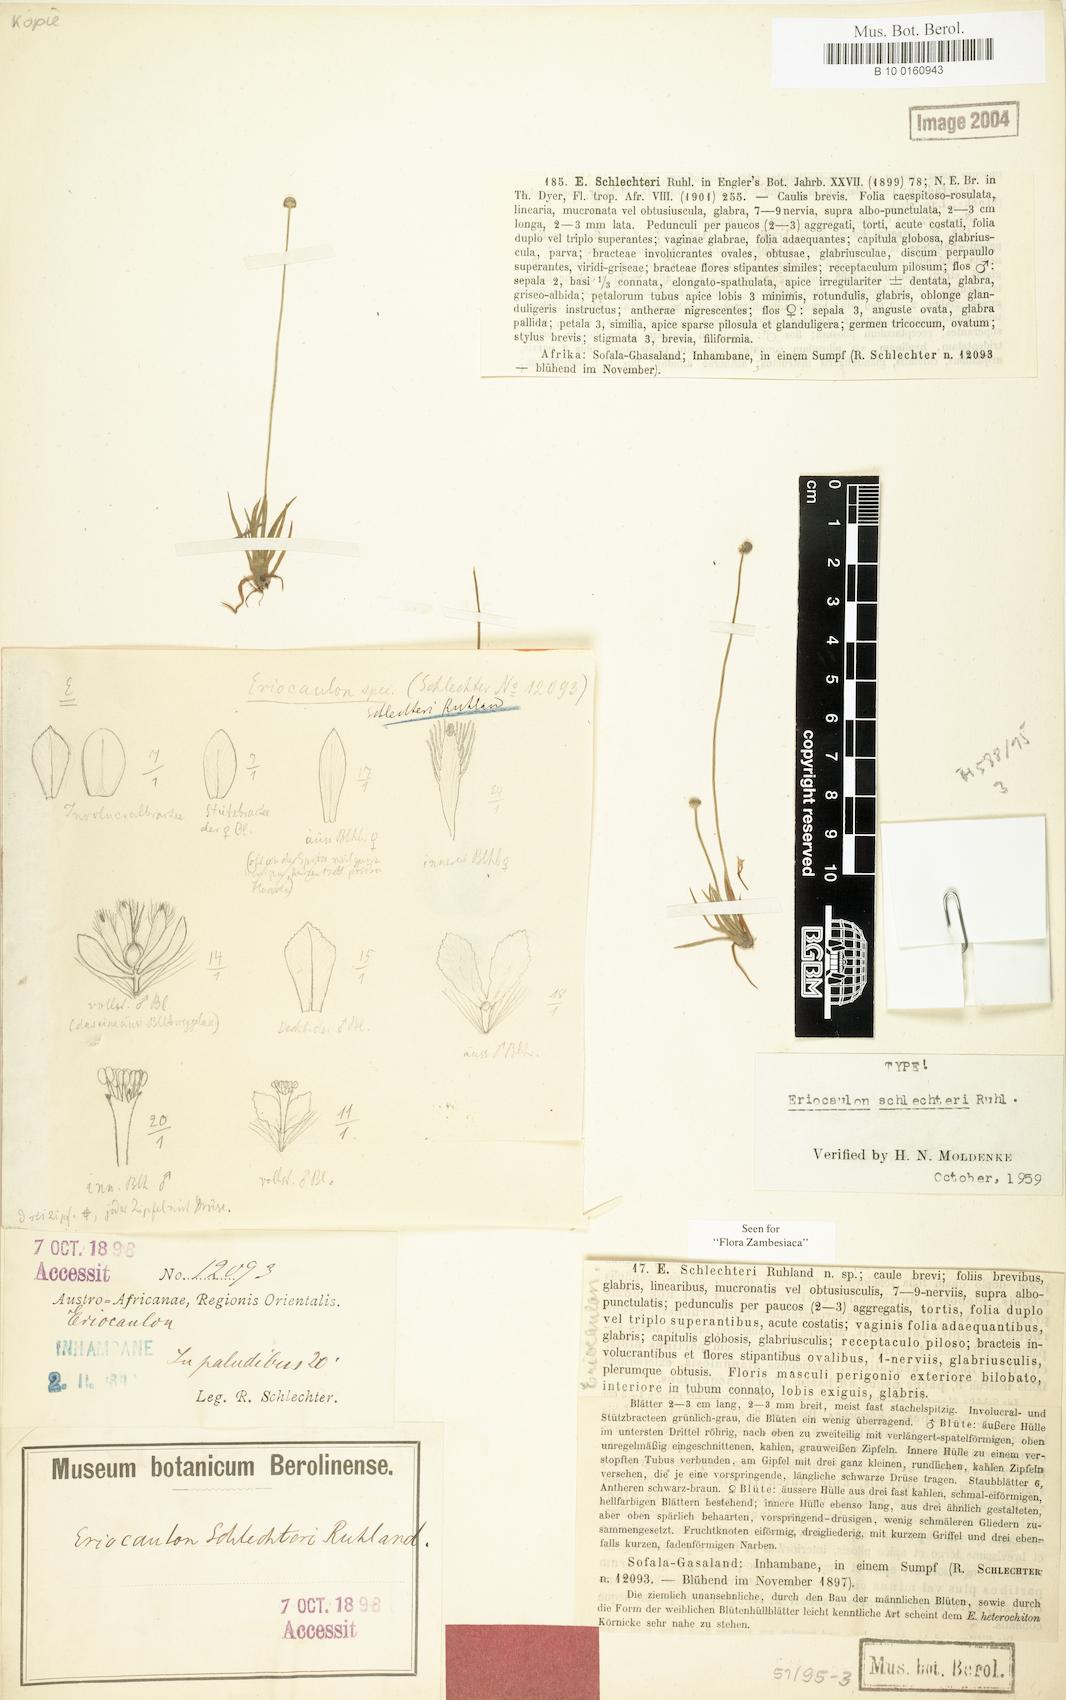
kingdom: Plantae
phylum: Tracheophyta
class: Liliopsida
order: Poales
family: Eriocaulaceae
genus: Eriocaulon
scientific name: Eriocaulon schlechteri
